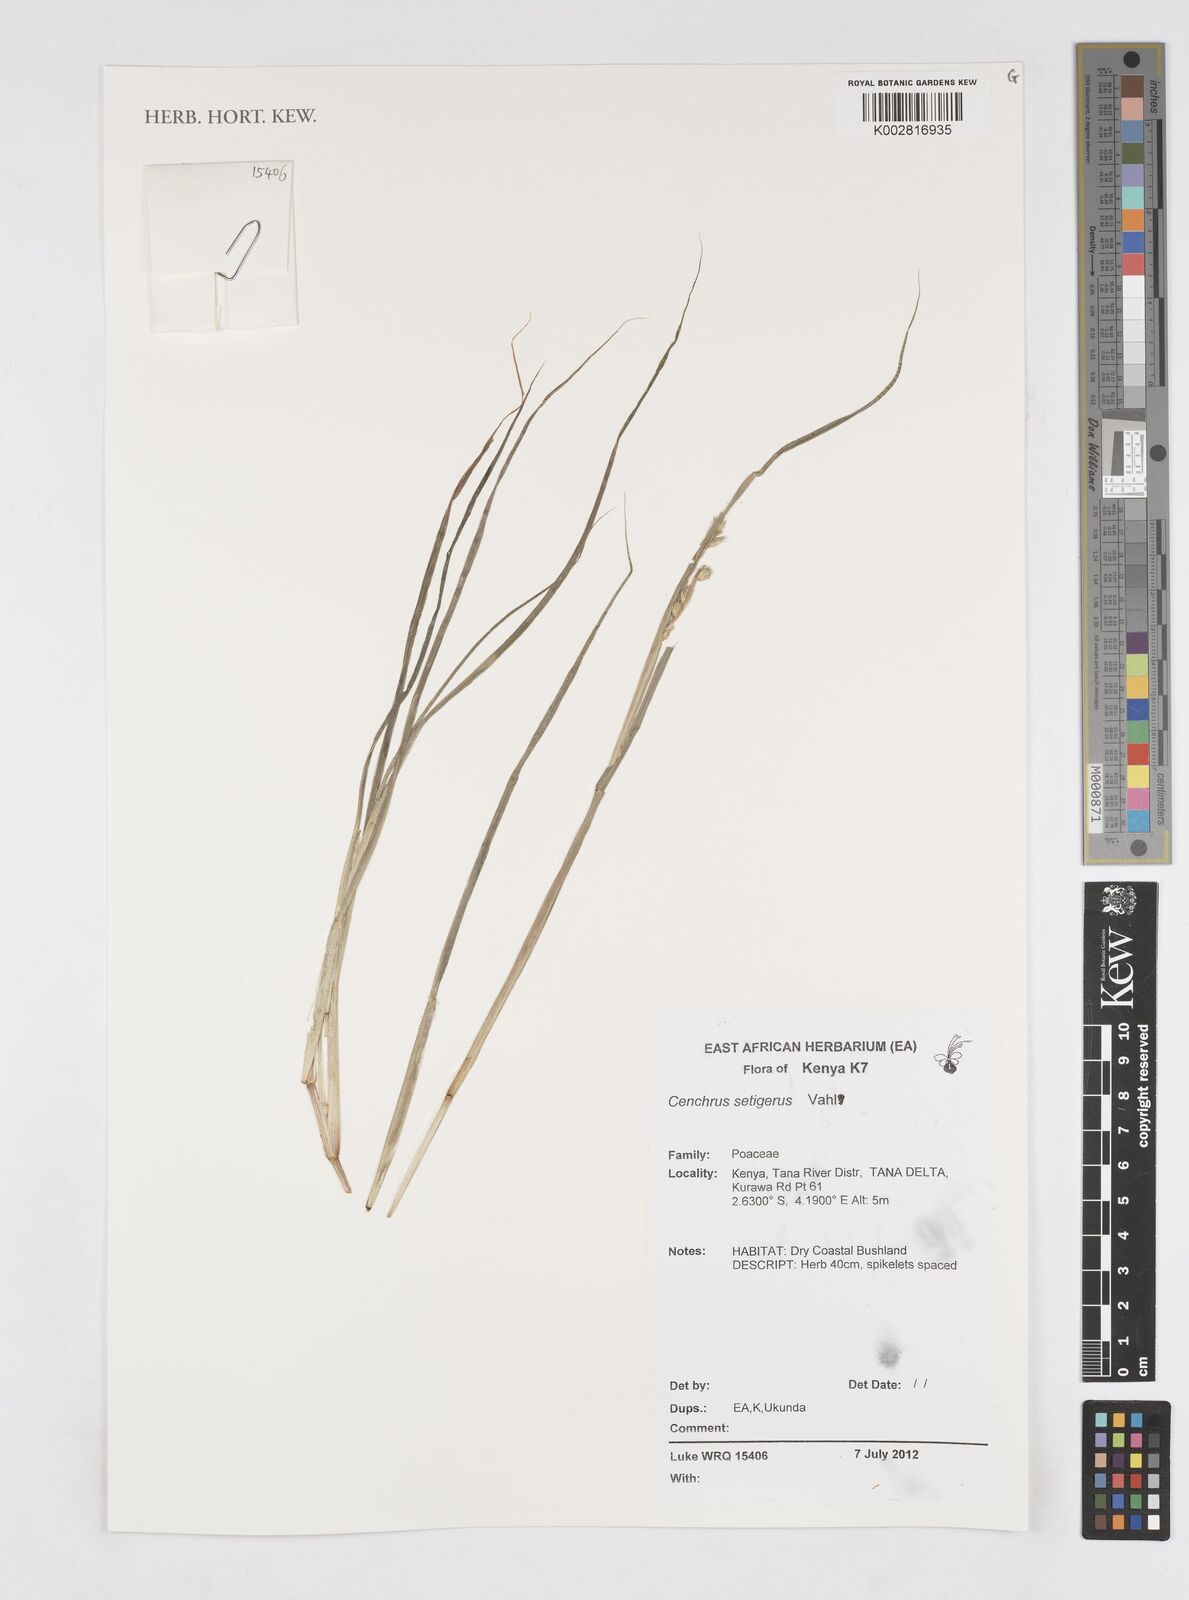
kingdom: Plantae
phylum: Tracheophyta
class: Liliopsida
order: Poales
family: Poaceae
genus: Cenchrus
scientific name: Cenchrus setigerus
